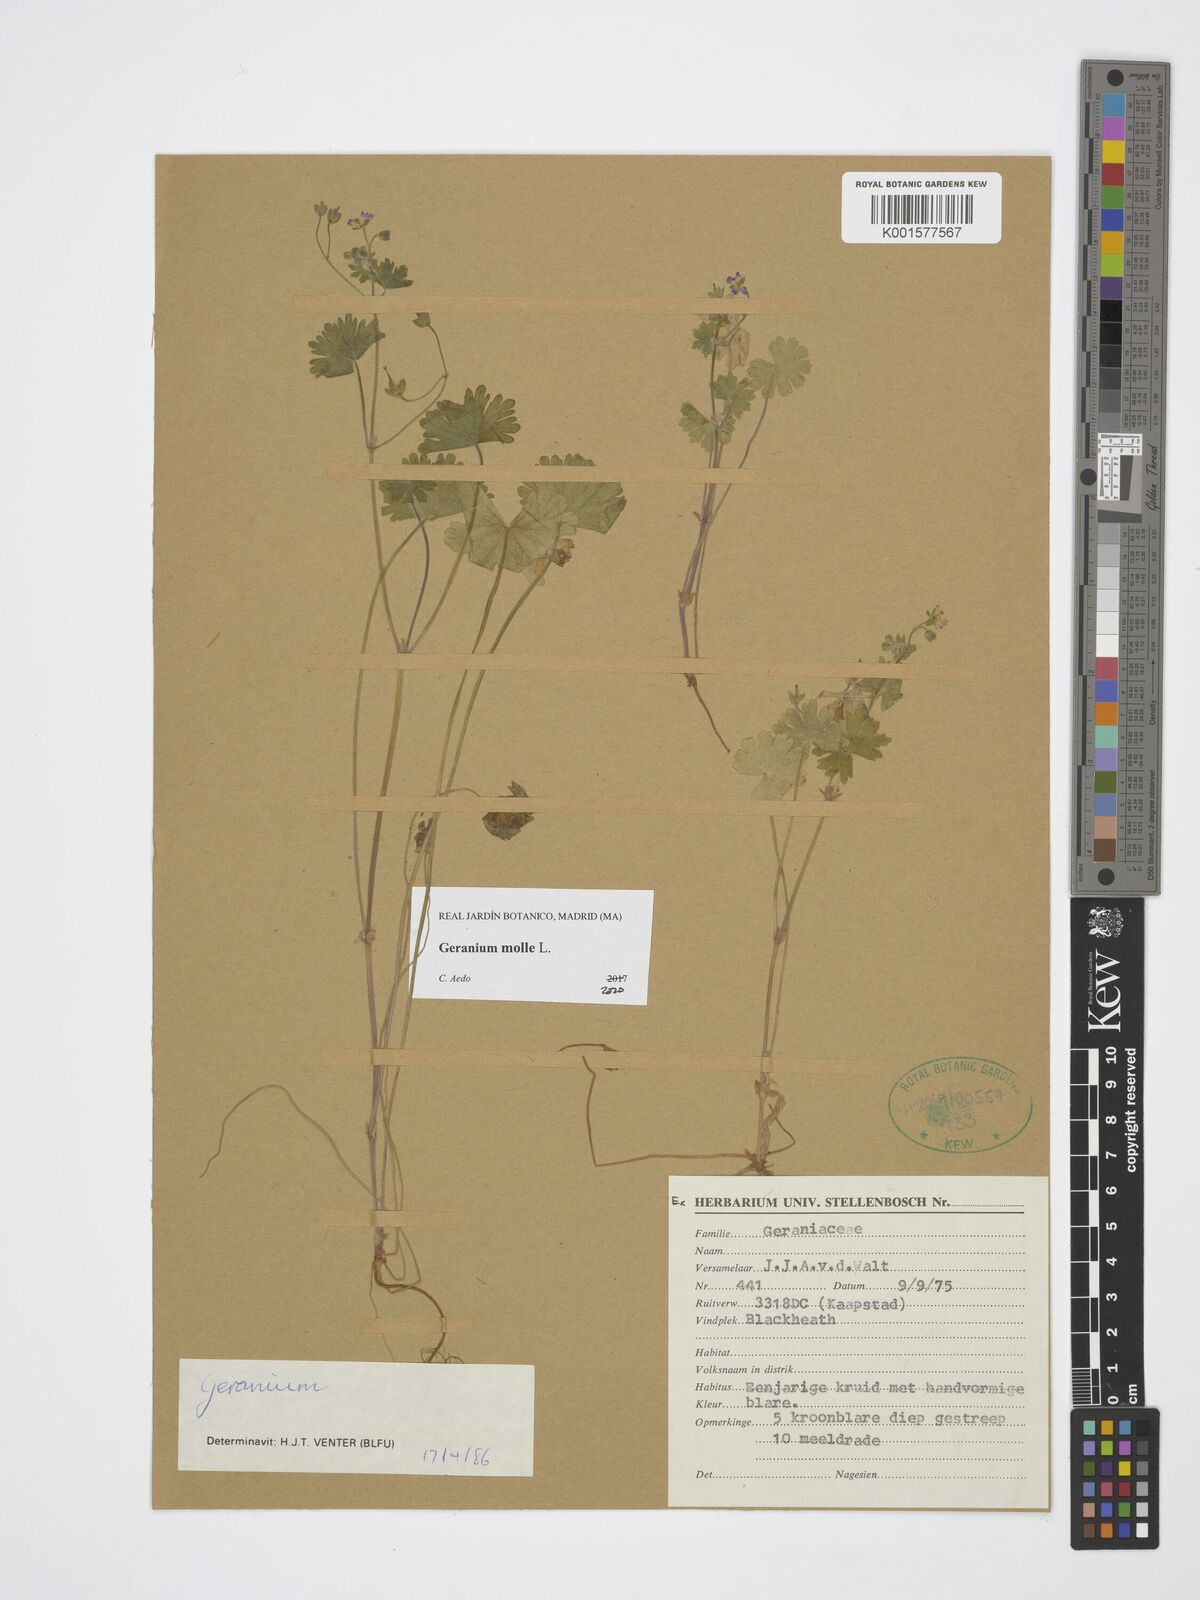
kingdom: Plantae
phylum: Tracheophyta
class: Magnoliopsida
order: Geraniales
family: Geraniaceae
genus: Geranium
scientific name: Geranium molle
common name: Dove's-foot crane's-bill
